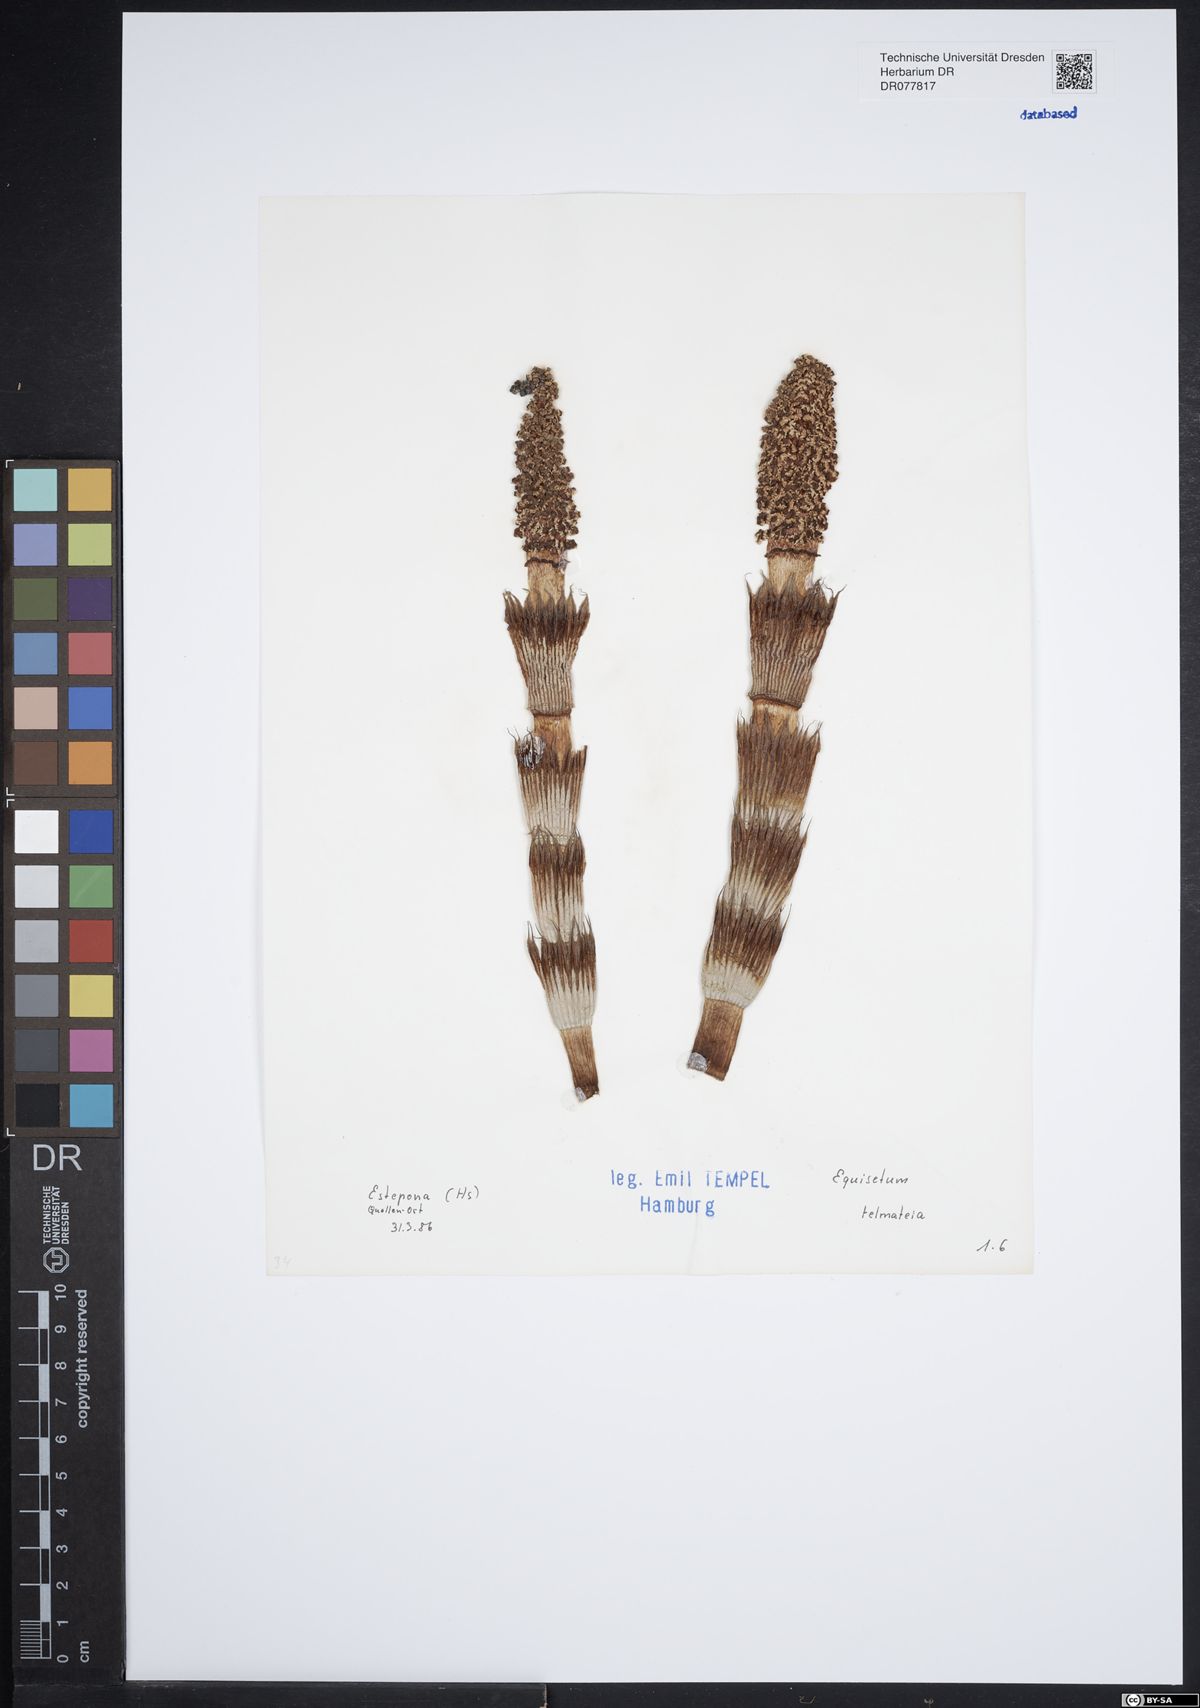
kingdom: Plantae
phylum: Tracheophyta
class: Polypodiopsida
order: Equisetales
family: Equisetaceae
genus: Equisetum
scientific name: Equisetum telmateia
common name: Great horsetail
